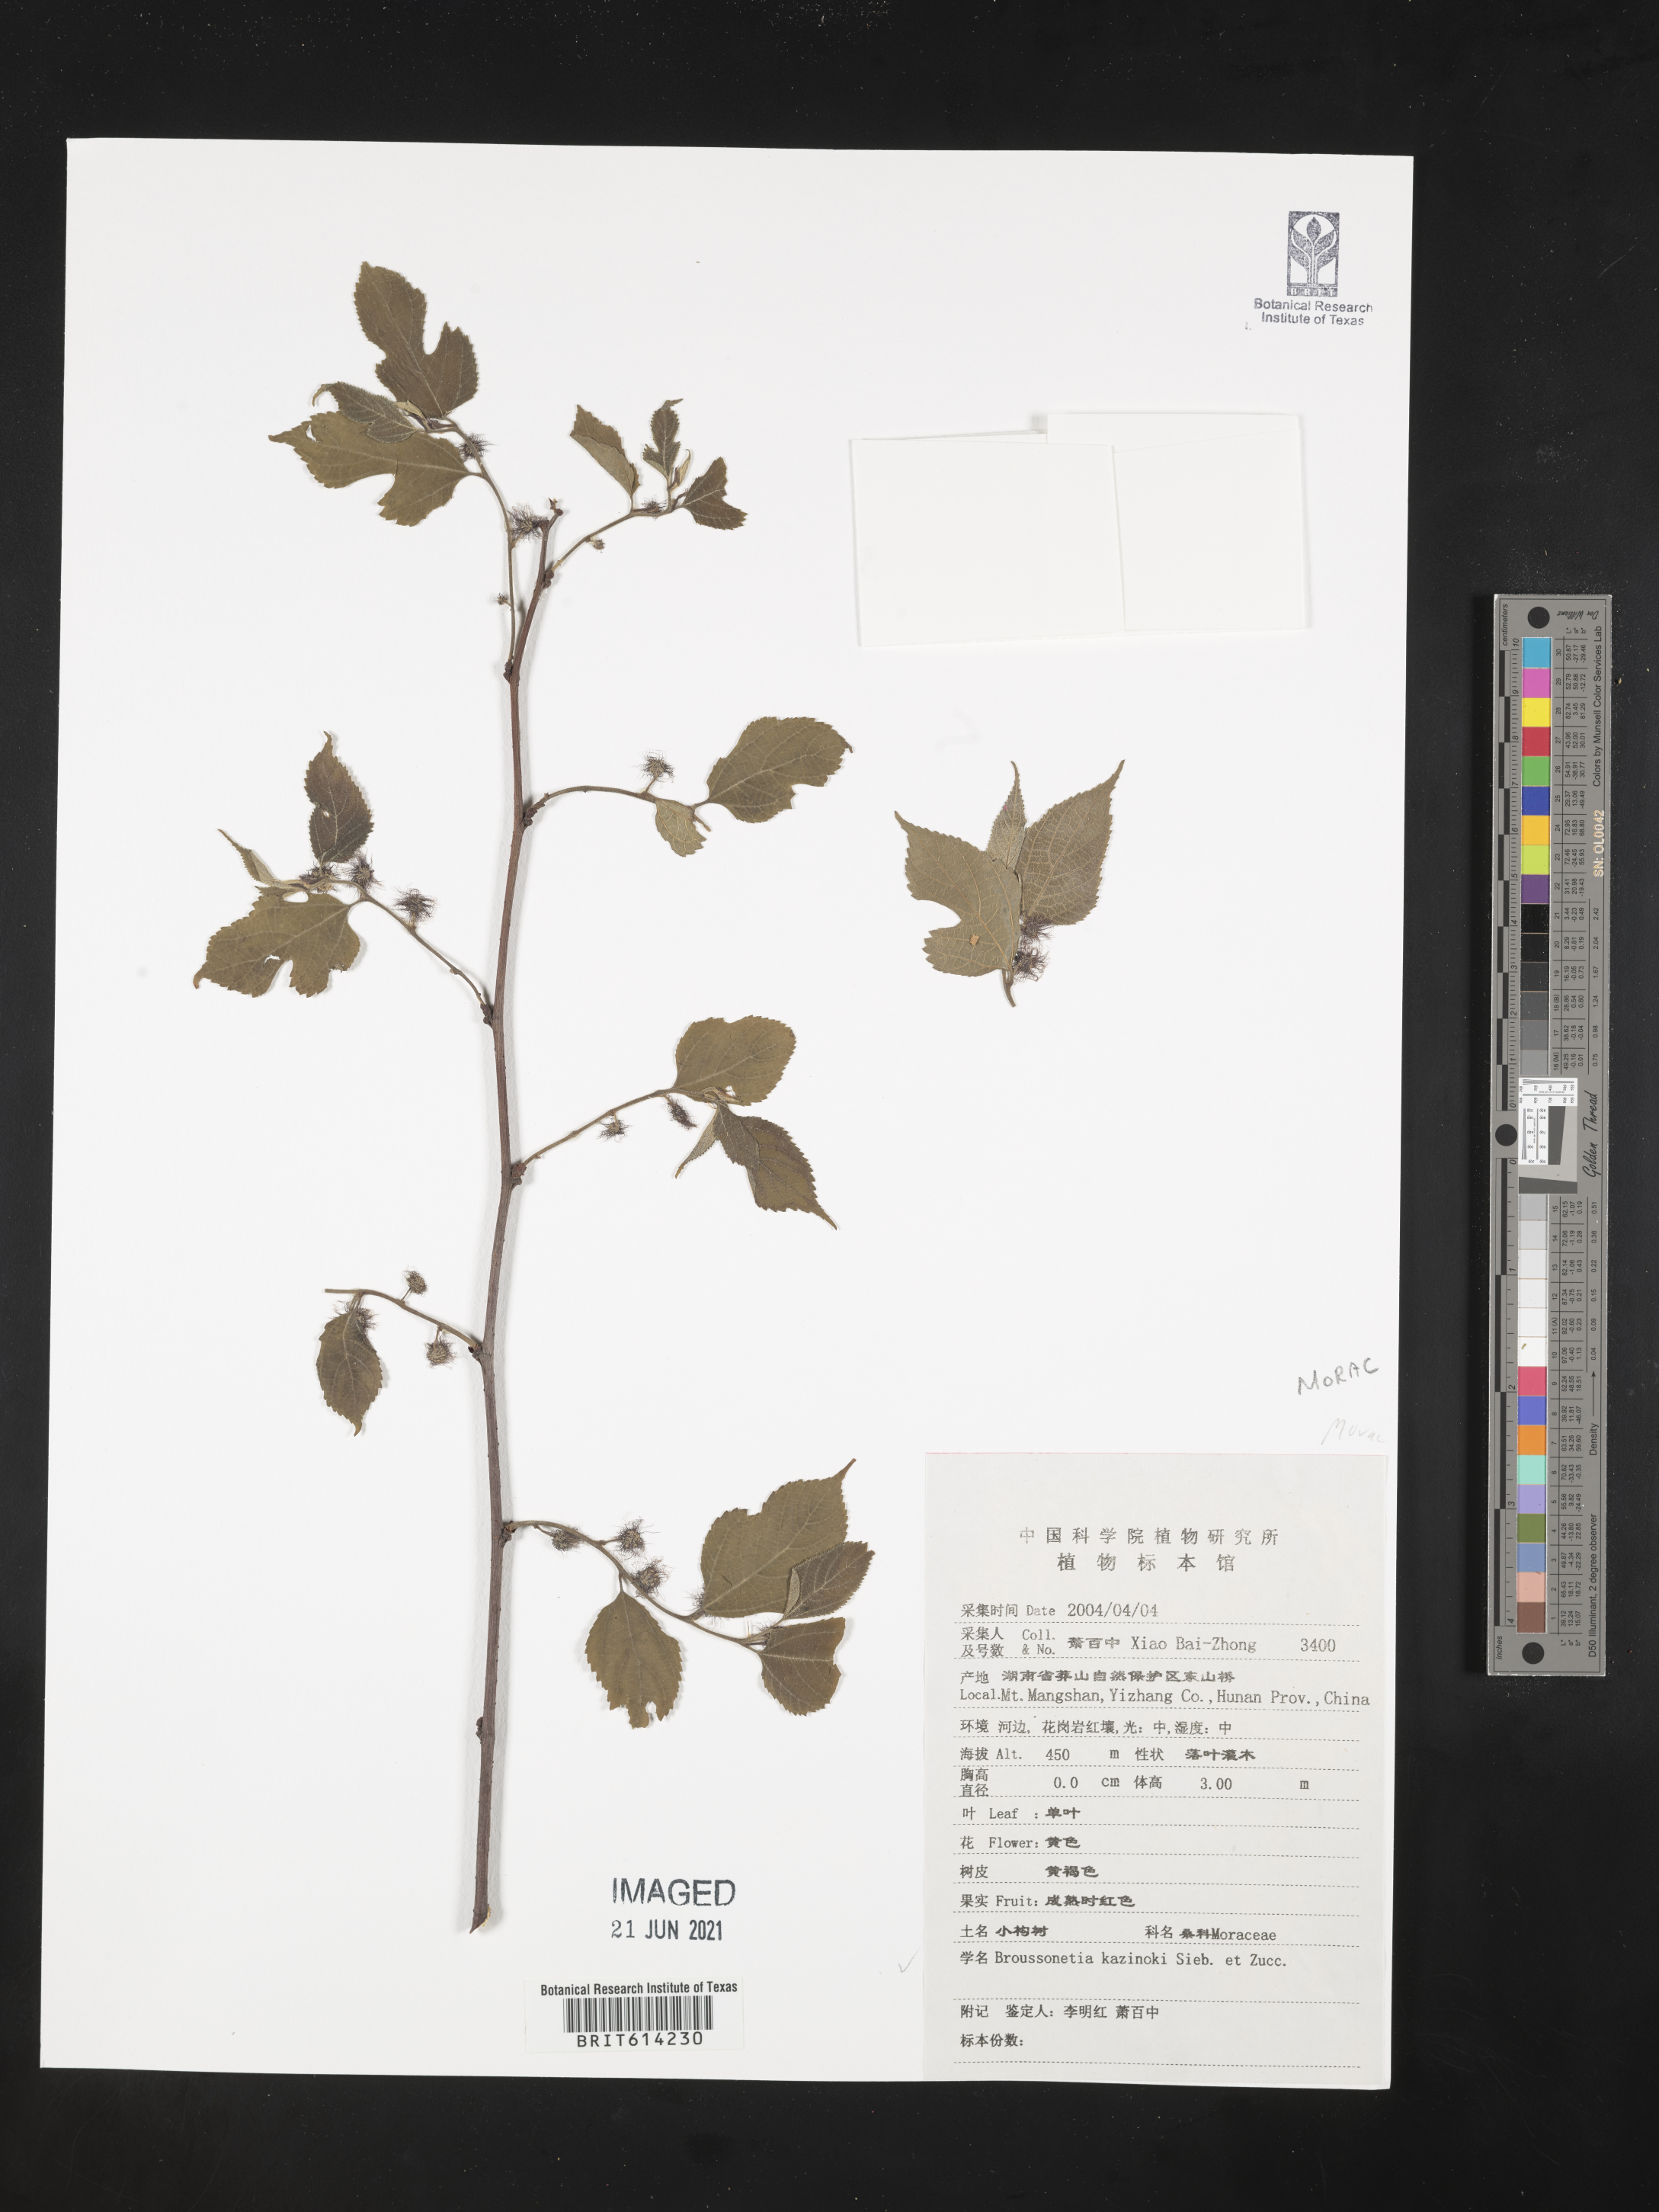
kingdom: Plantae
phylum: Tracheophyta
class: Magnoliopsida
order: Rosales
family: Moraceae
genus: Broussonetia
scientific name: Broussonetia kazinoki
